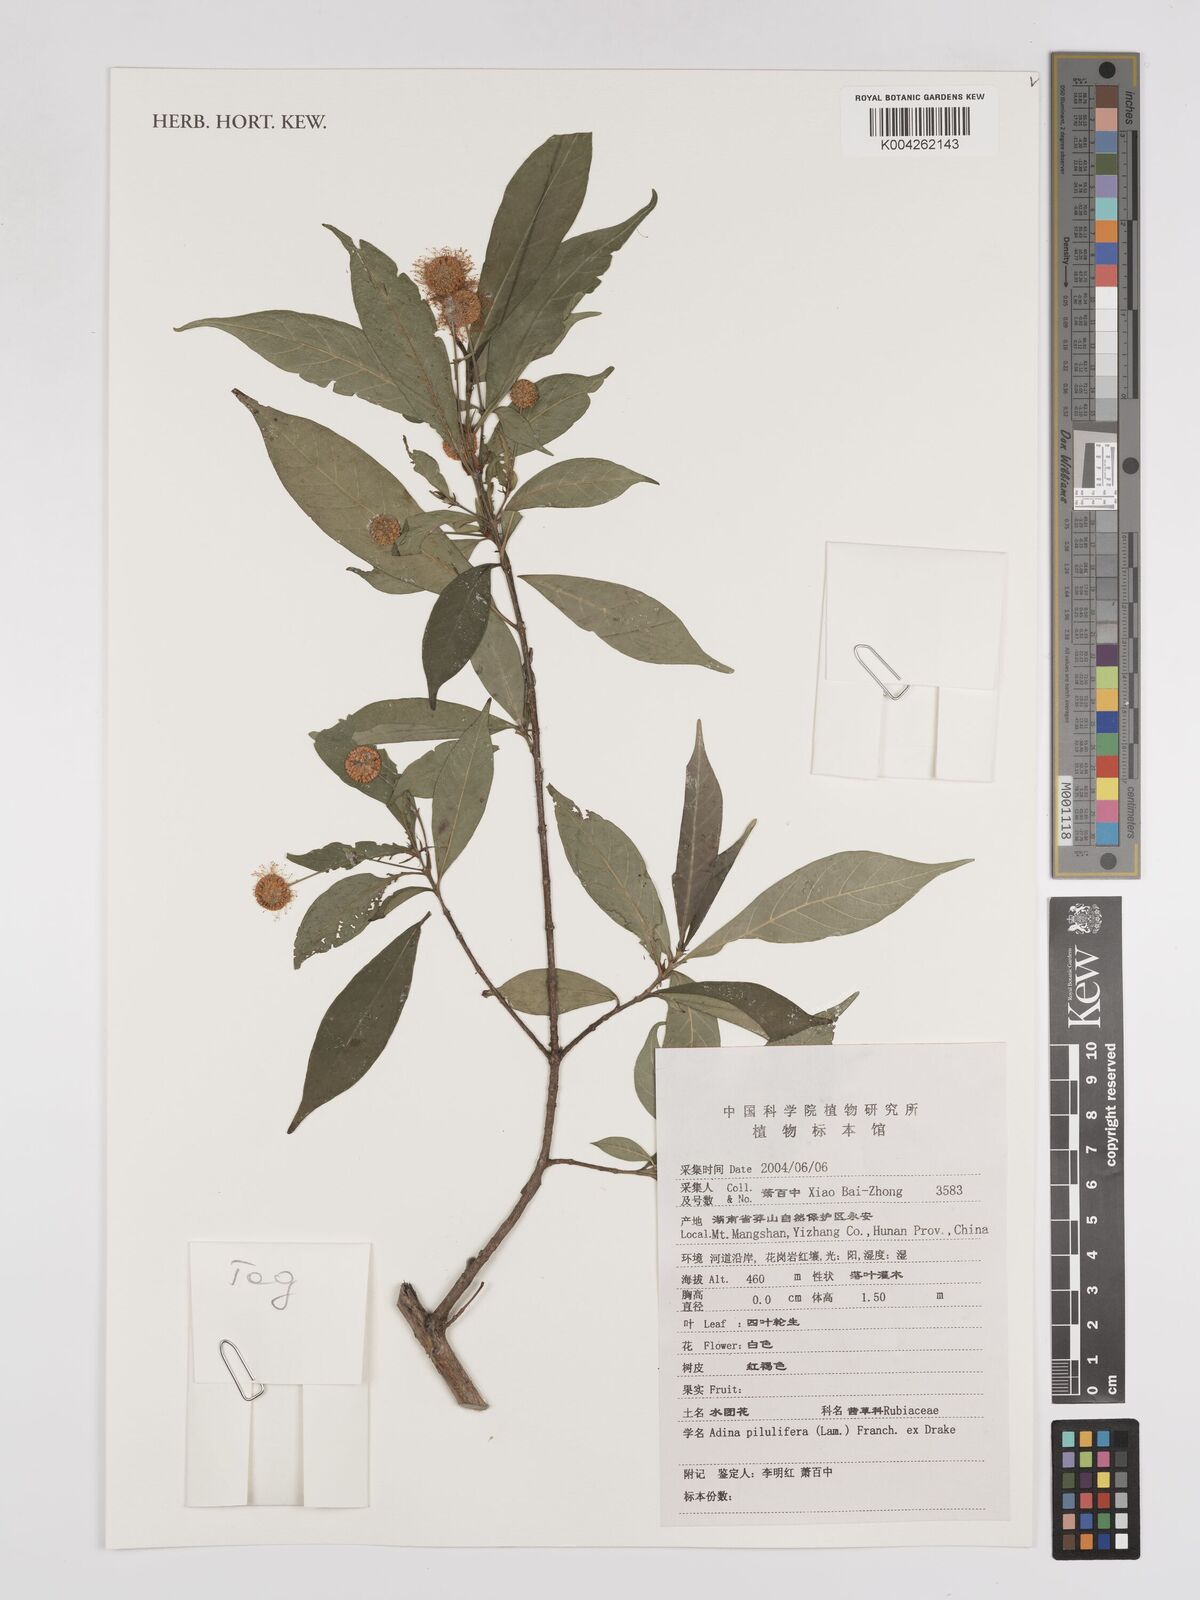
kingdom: Plantae
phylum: Tracheophyta
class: Magnoliopsida
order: Gentianales
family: Rubiaceae
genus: Adina
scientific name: Adina pilulifera
